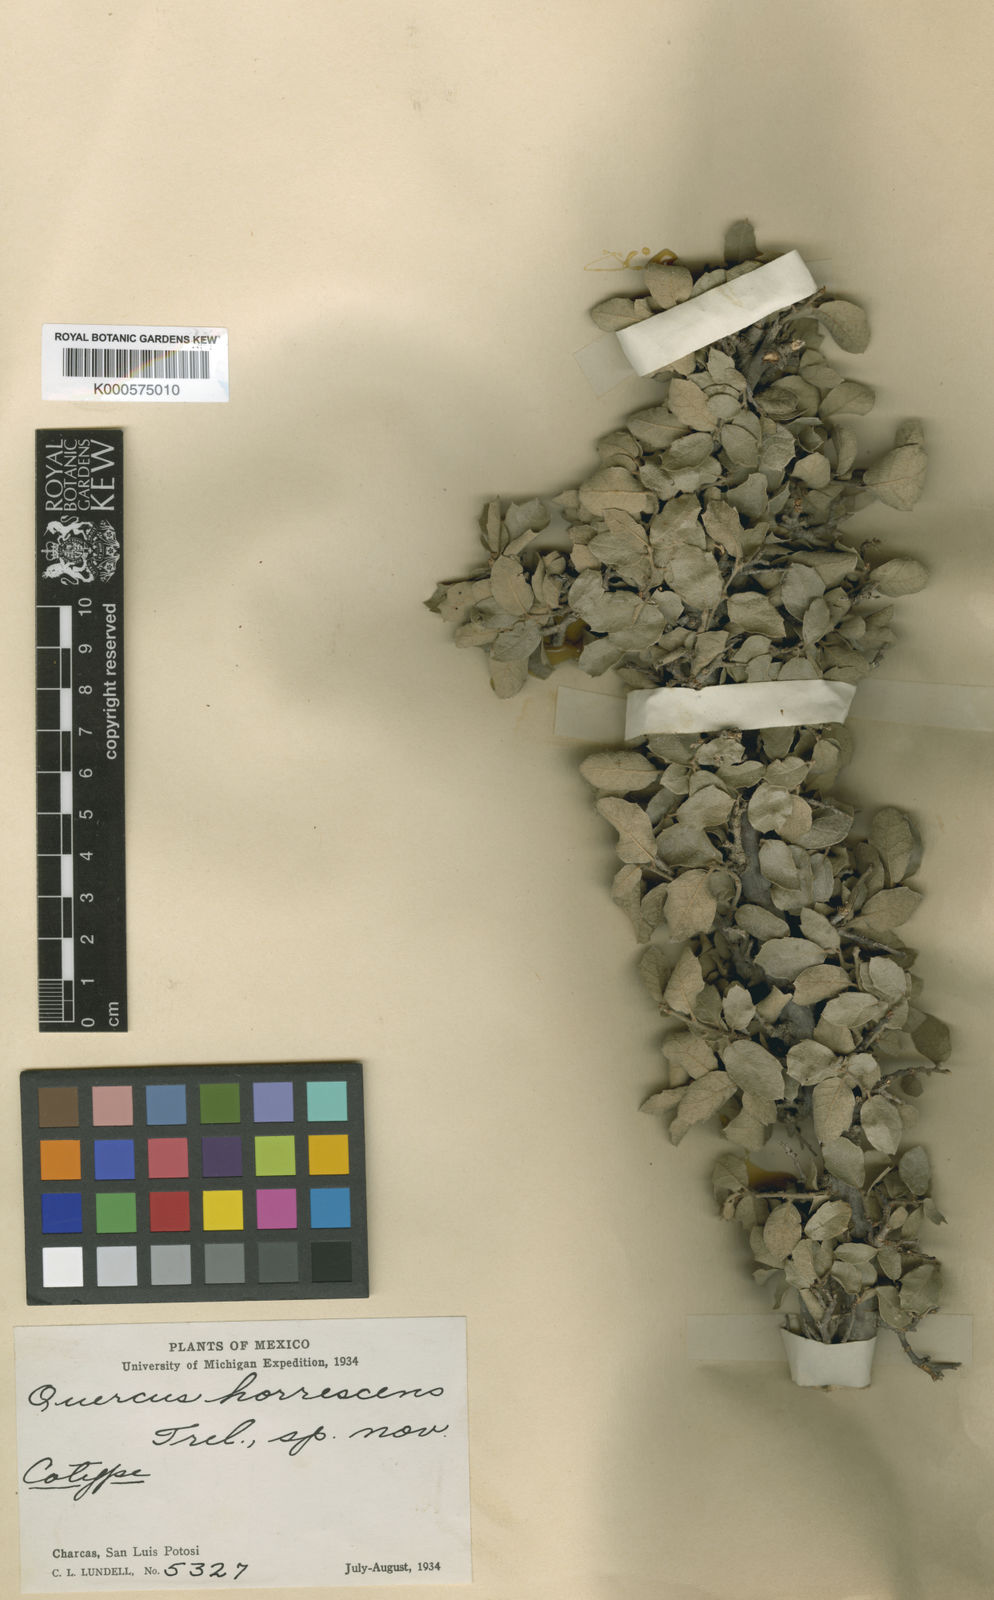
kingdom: Plantae
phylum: Tracheophyta
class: Magnoliopsida
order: Fagales
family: Fagaceae
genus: Quercus
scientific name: Quercus
